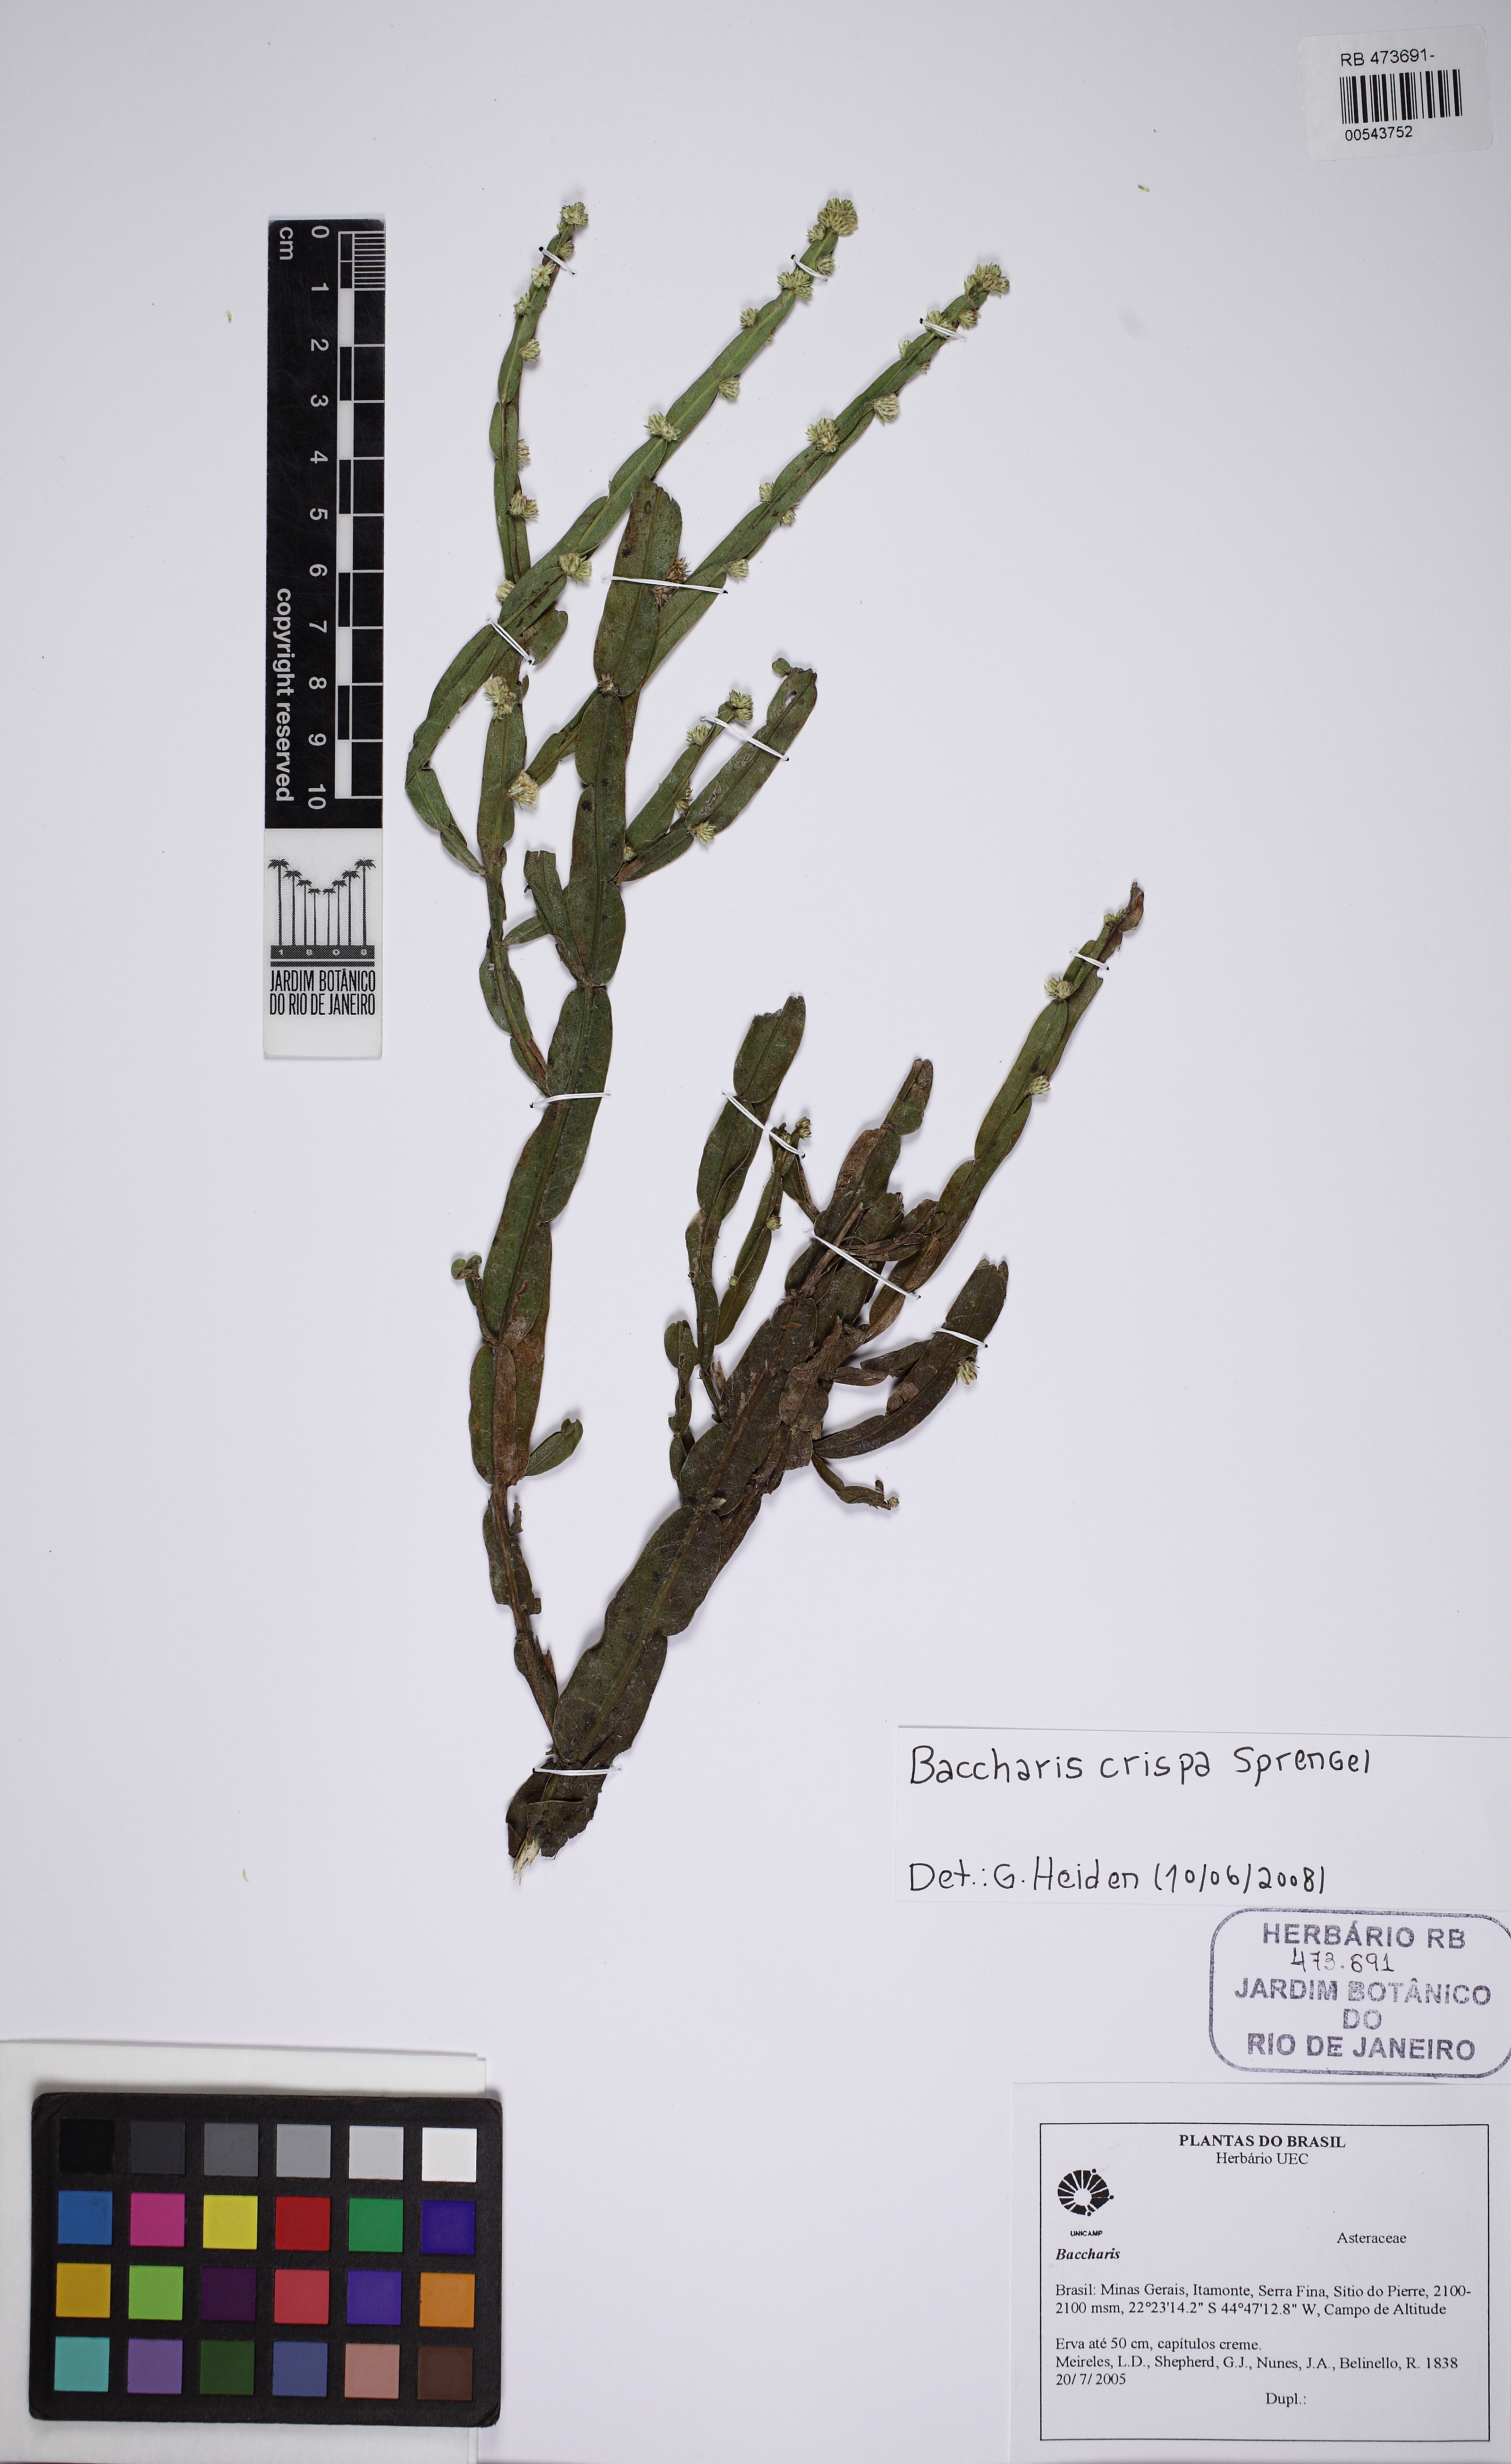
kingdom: Plantae
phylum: Tracheophyta
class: Magnoliopsida
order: Asterales
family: Asteraceae
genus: Baccharis
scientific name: Baccharis crispa
